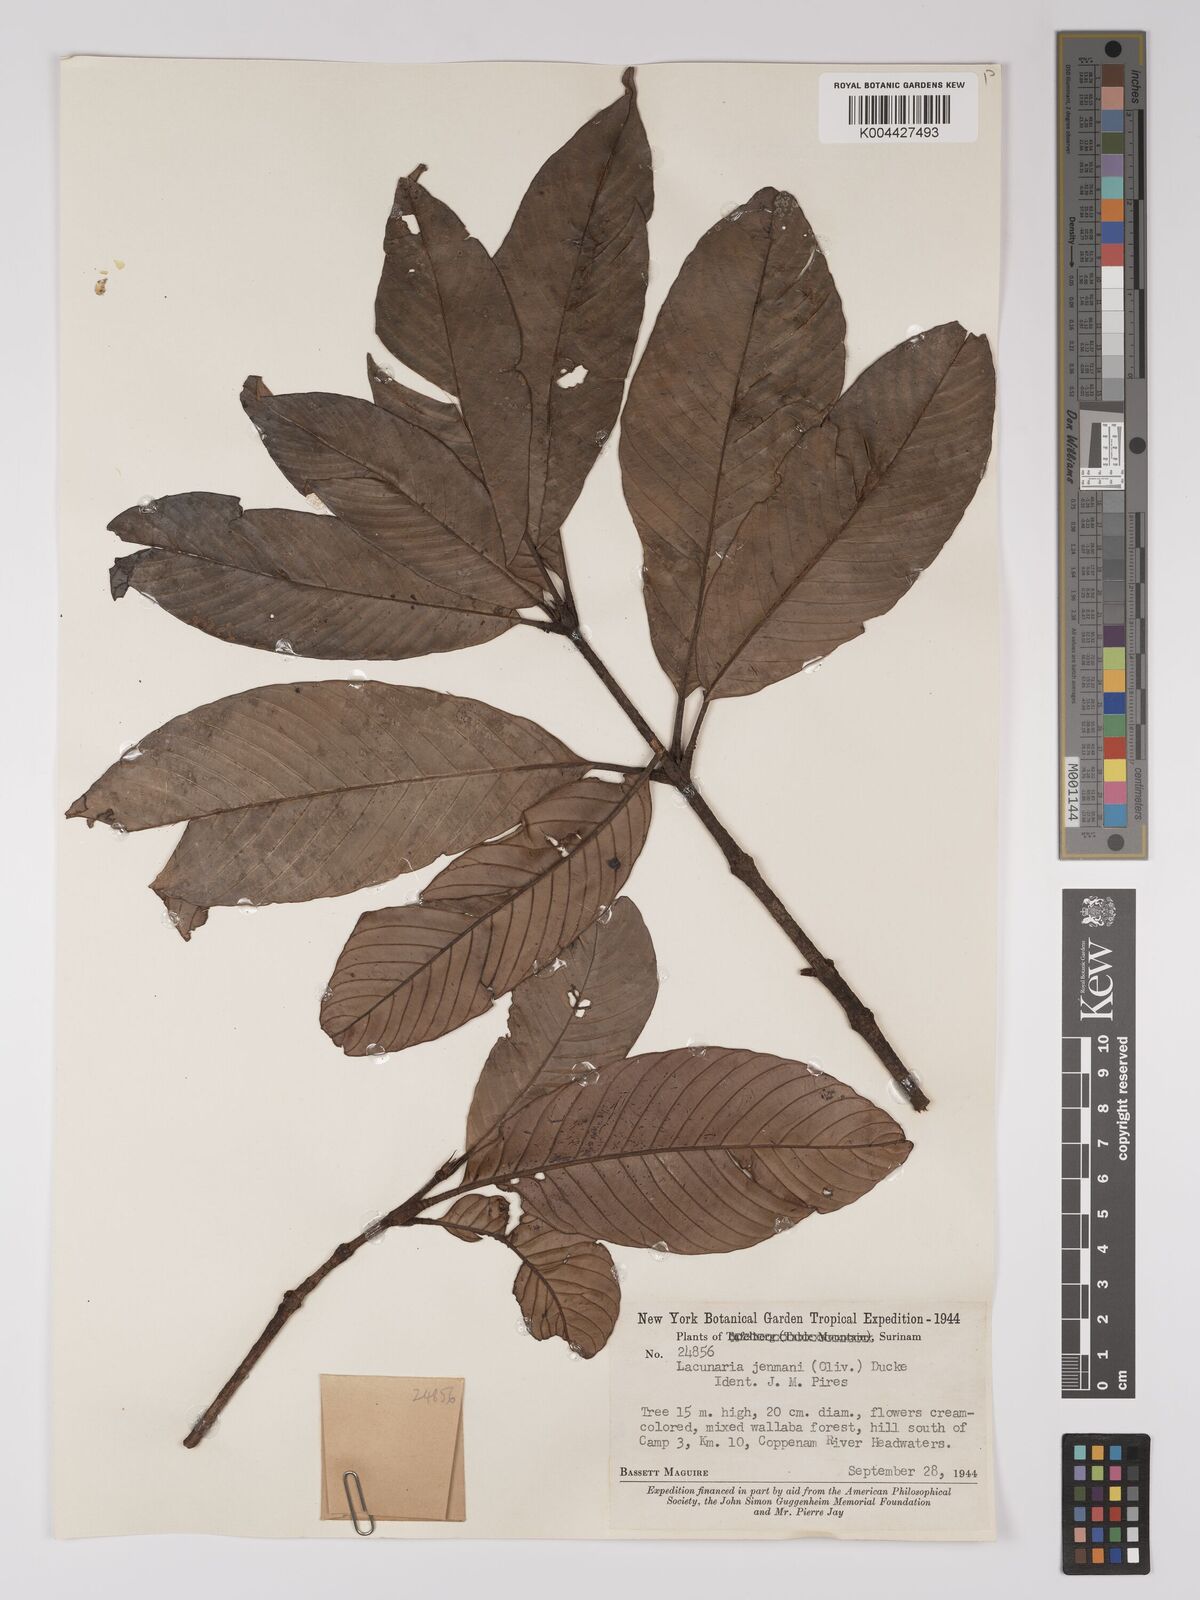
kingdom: Plantae
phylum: Tracheophyta
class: Magnoliopsida
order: Malpighiales
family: Quiinaceae
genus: Lacunaria
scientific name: Lacunaria jenmanii
